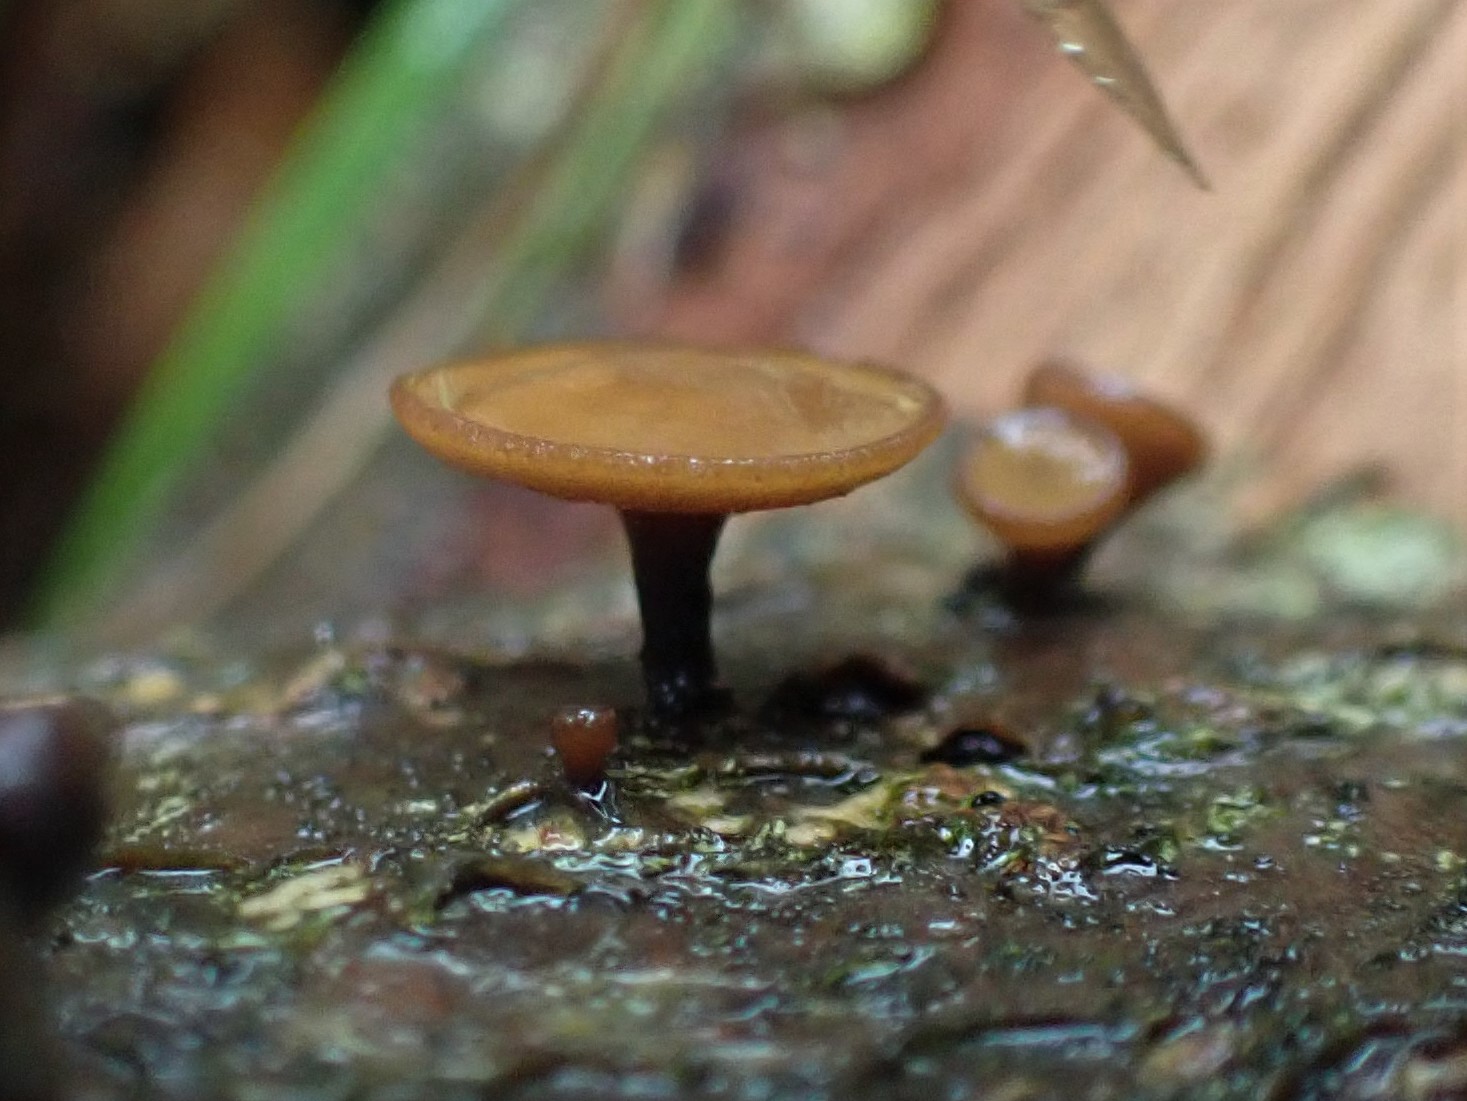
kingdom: Fungi
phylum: Ascomycota
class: Leotiomycetes
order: Helotiales
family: Rutstroemiaceae
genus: Rutstroemia
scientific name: Rutstroemia firma
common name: gren-brunskive
